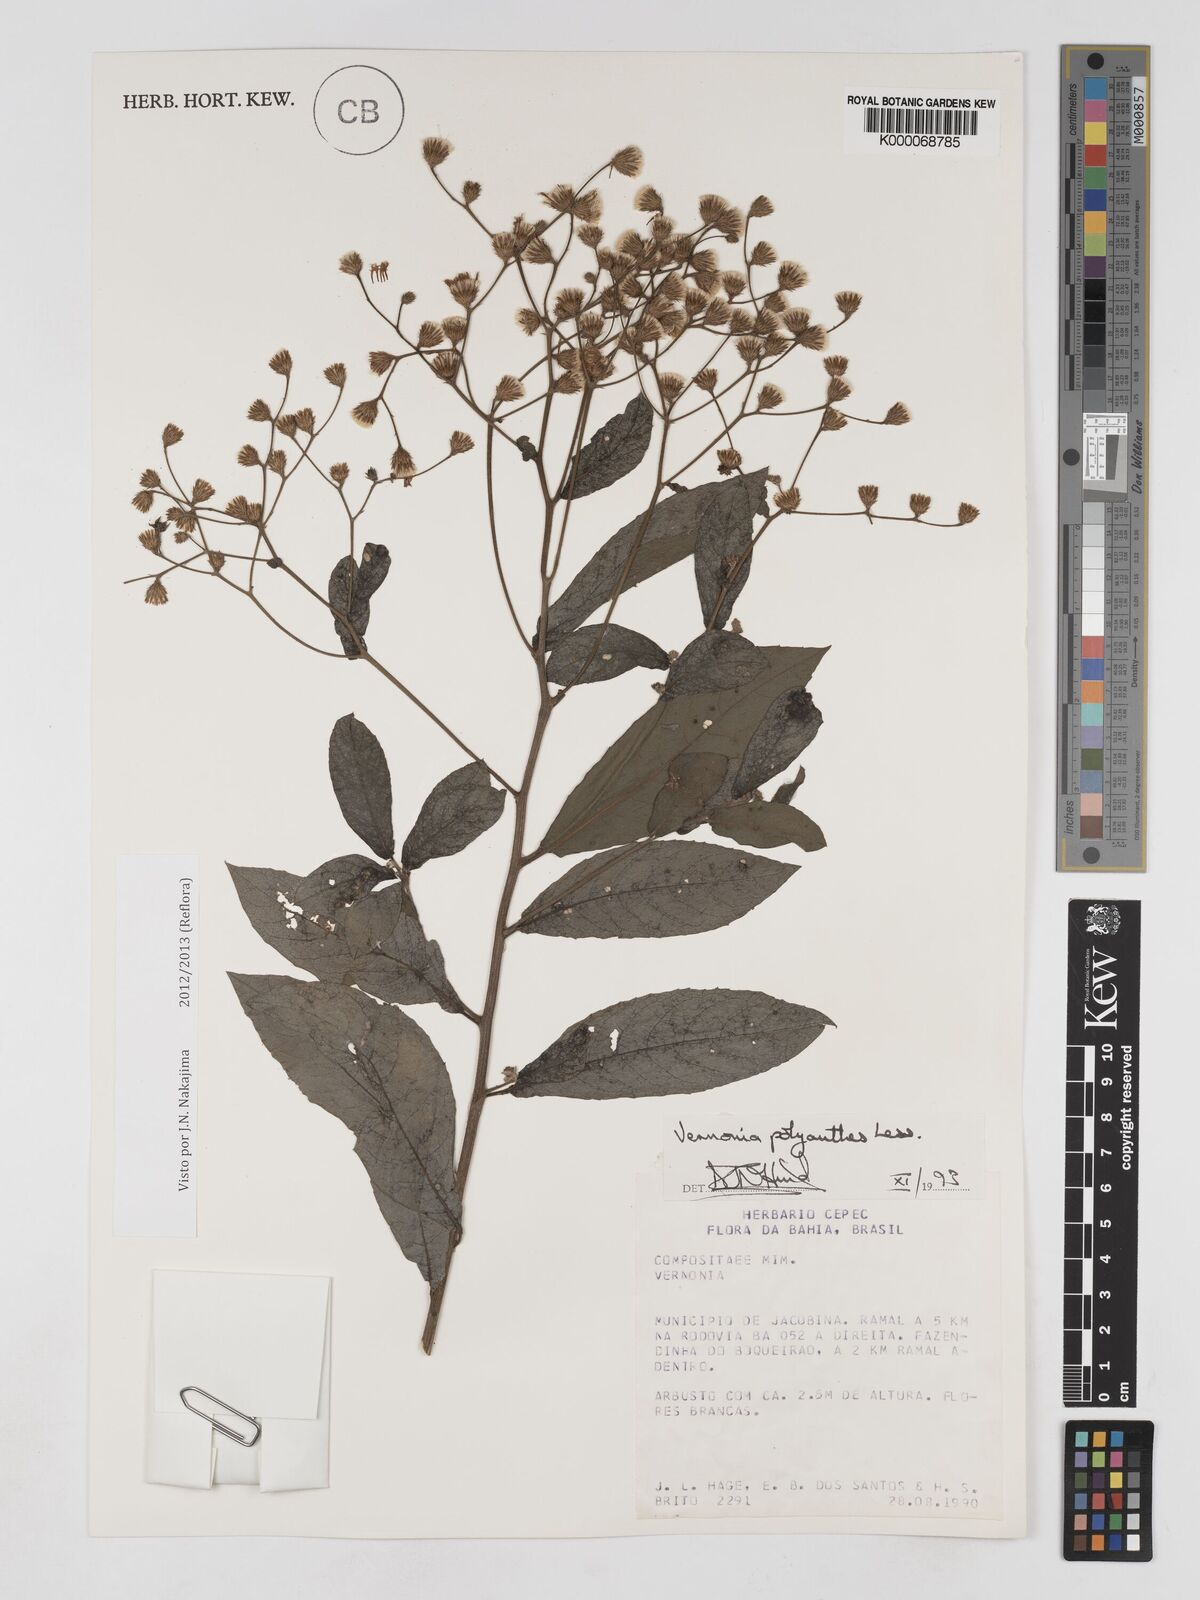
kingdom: Plantae
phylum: Tracheophyta
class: Magnoliopsida
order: Asterales
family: Asteraceae
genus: Vernonanthura
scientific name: Vernonanthura polyanthes
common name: Tree aster
